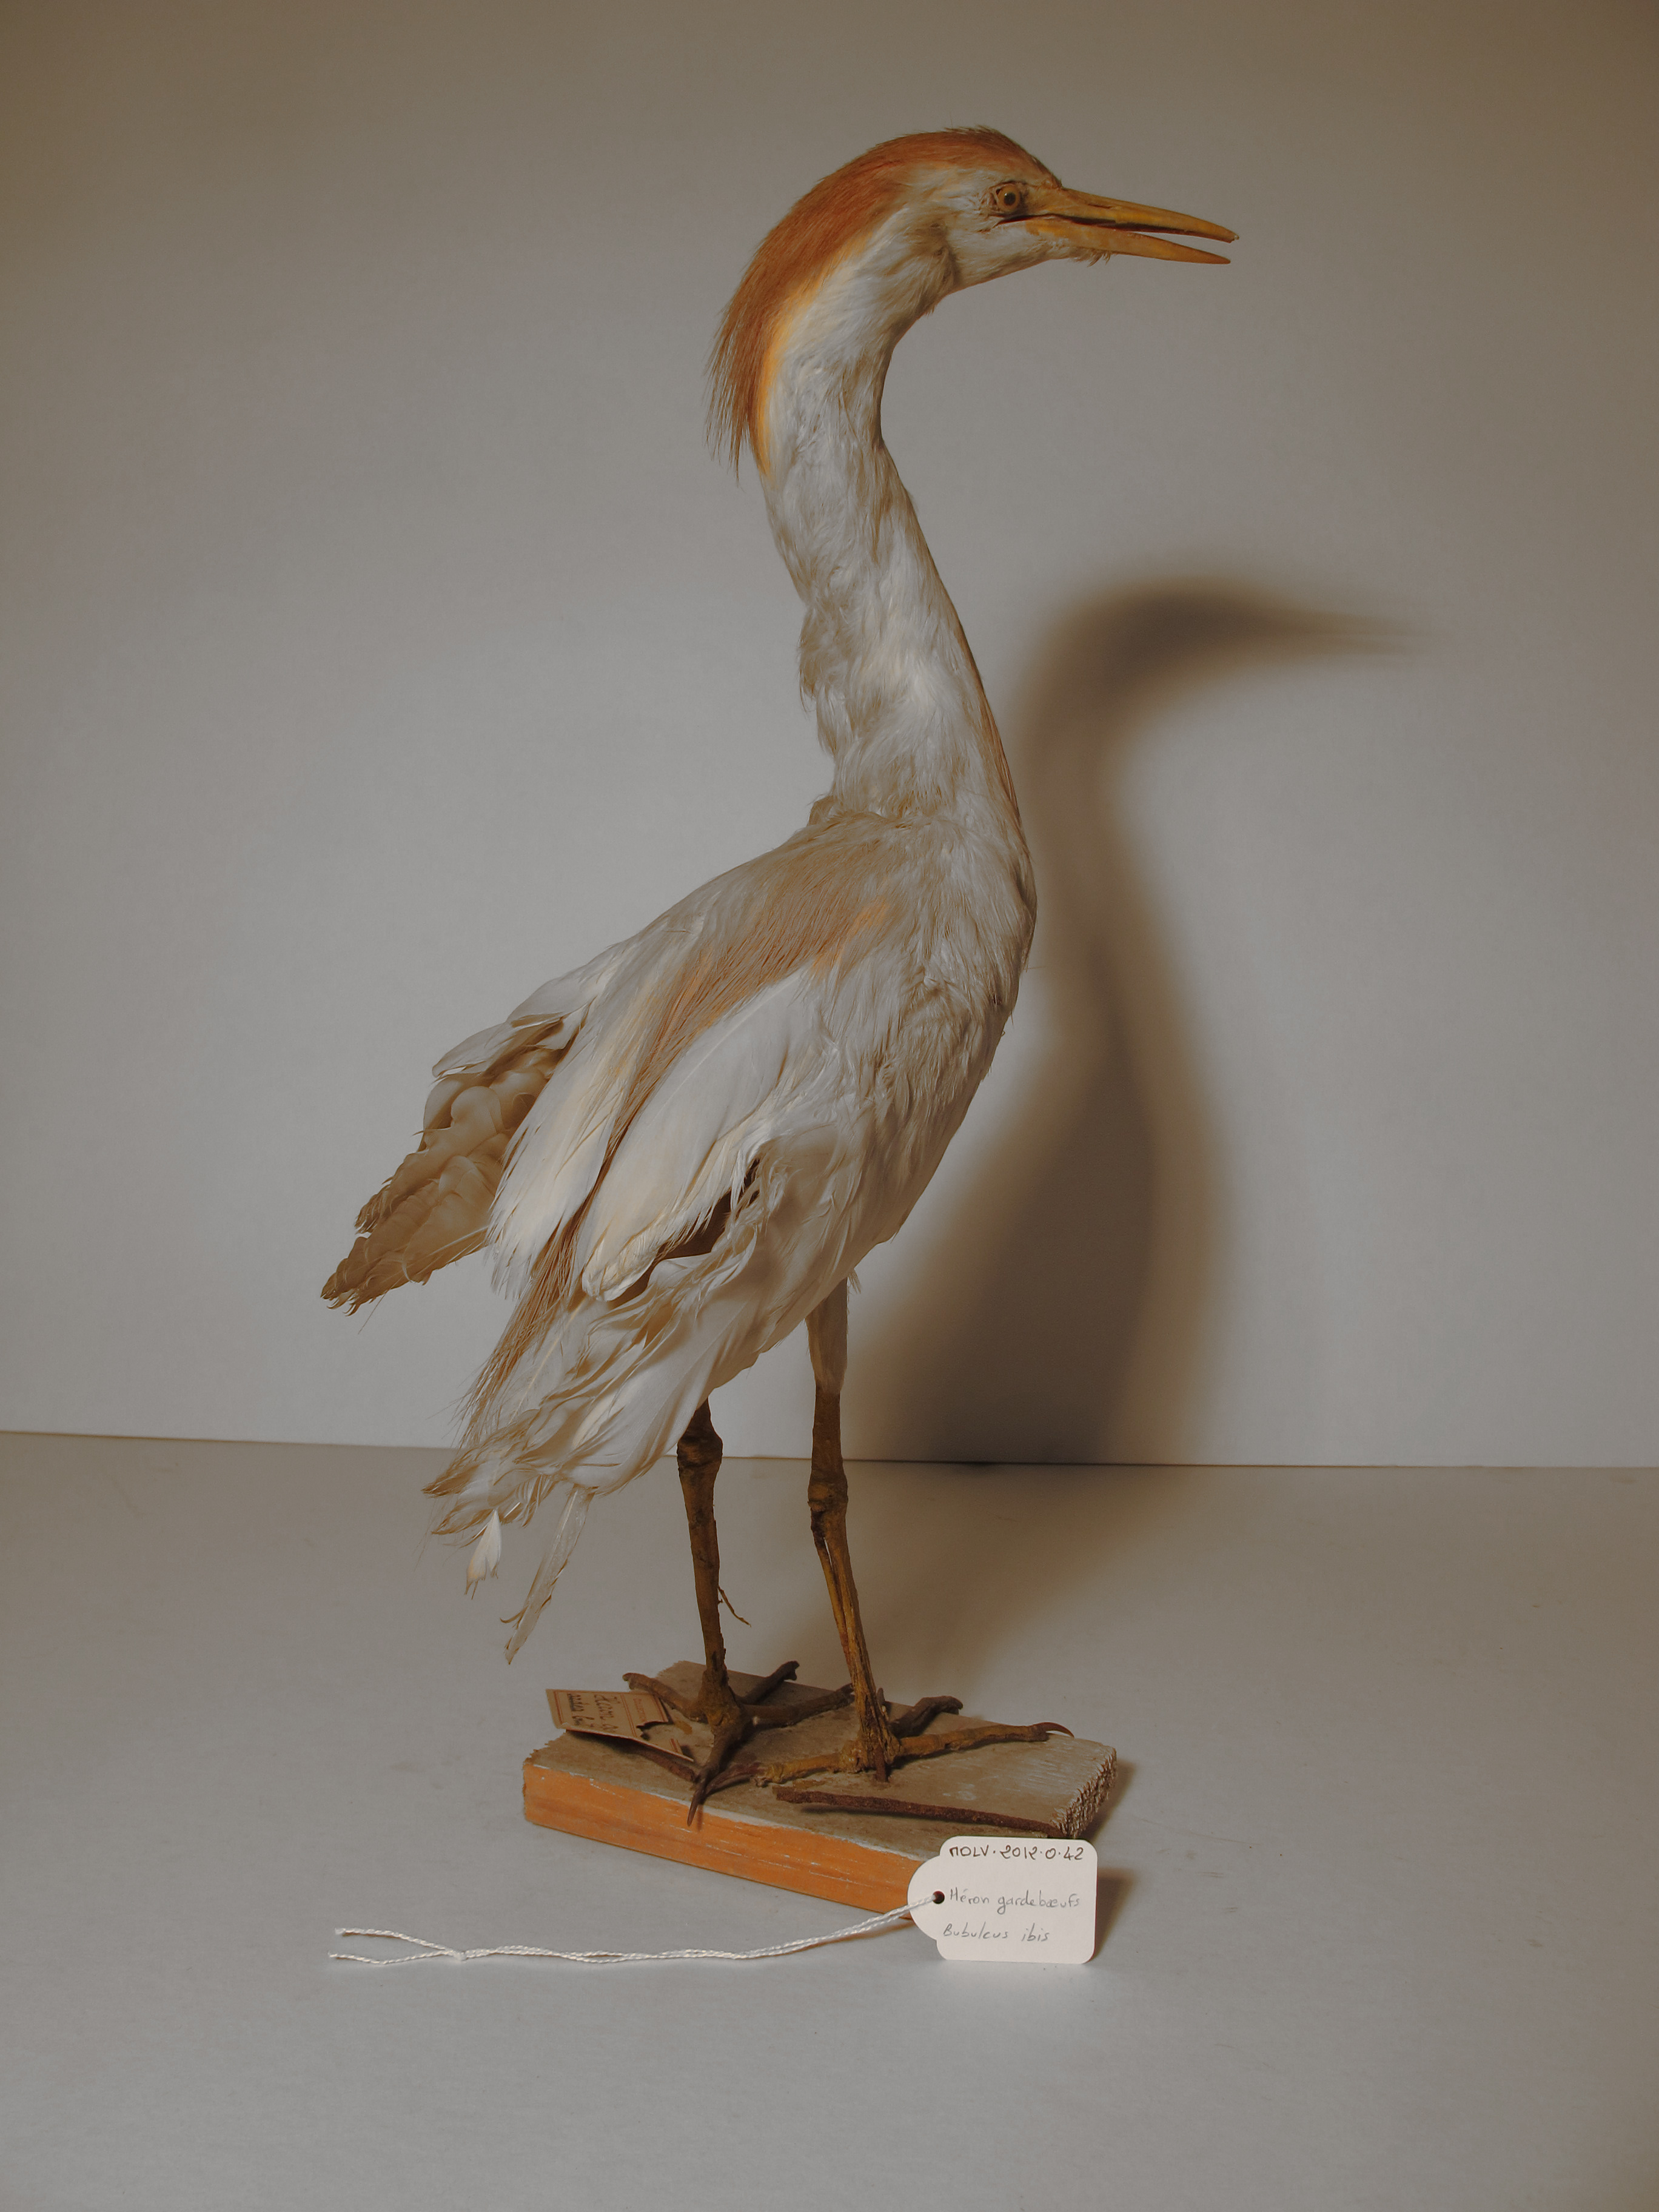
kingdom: Animalia
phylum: Chordata
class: Aves
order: Pelecaniformes
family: Ardeidae
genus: Bubulcus
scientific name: Bubulcus ibis
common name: Cattle Egret
